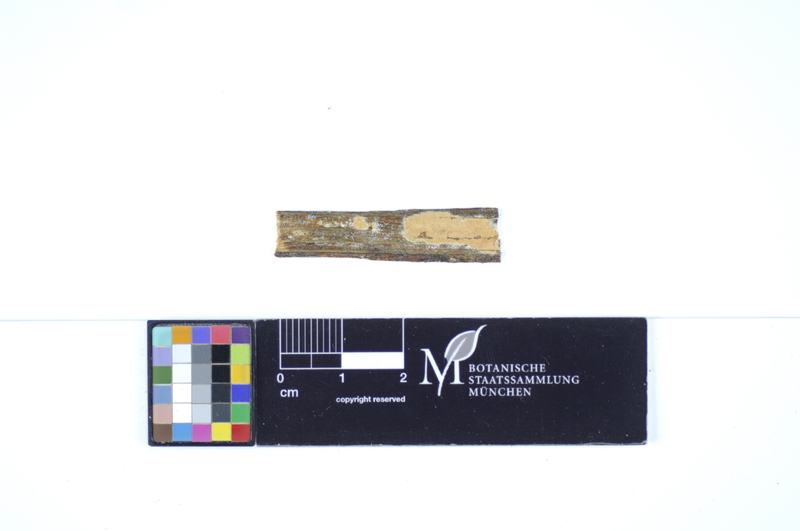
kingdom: Plantae
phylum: Tracheophyta
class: Magnoliopsida
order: Dipsacales
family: Viburnaceae
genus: Sambucus
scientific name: Sambucus ebulus
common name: Dwarf elder
